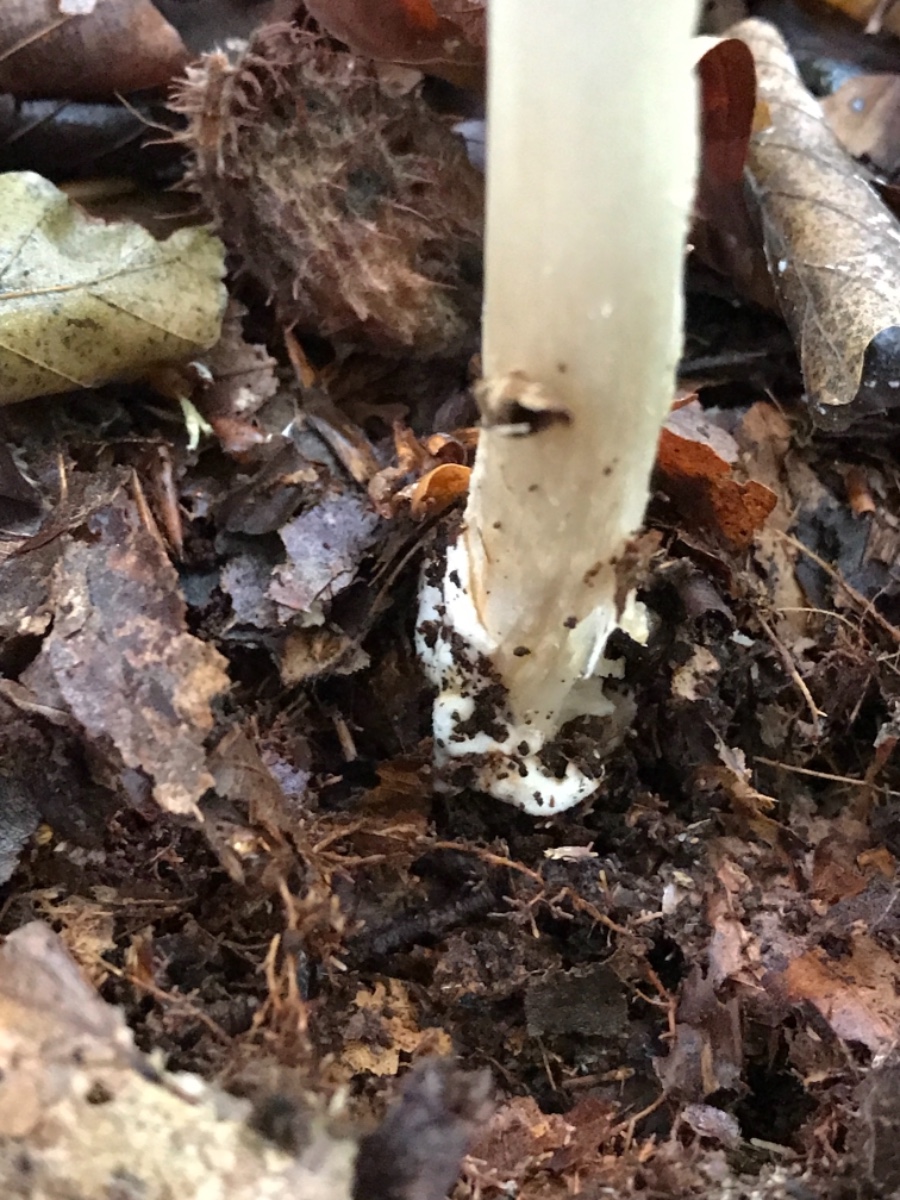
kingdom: Fungi
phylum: Basidiomycota
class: Agaricomycetes
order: Agaricales
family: Amanitaceae
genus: Amanita
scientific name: Amanita fulva
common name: brun kam-fluesvamp
